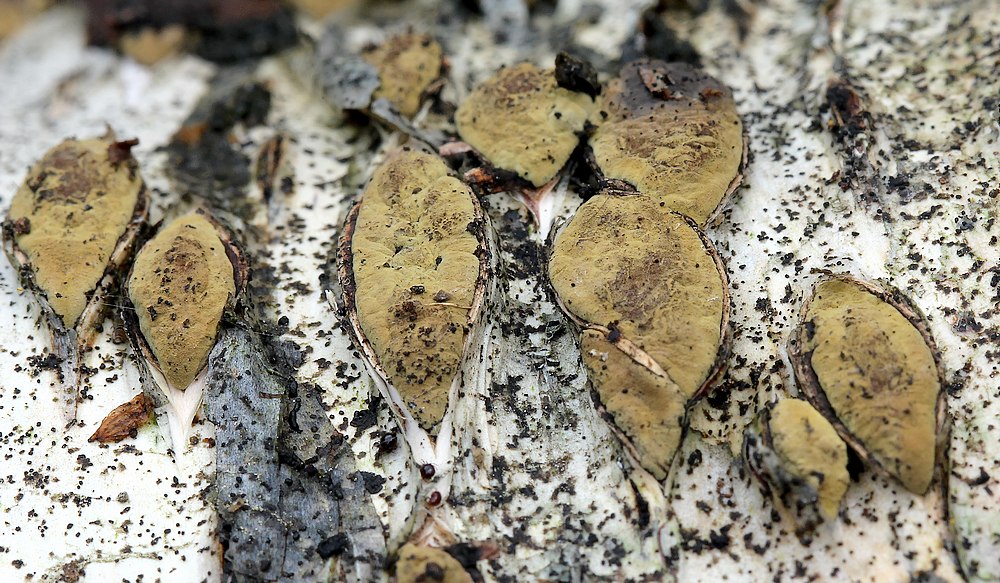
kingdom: Fungi
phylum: Ascomycota
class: Sordariomycetes
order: Xylariales
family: Hypoxylaceae
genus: Jackrogersella
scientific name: Jackrogersella multiformis
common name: foranderlig kulbær
